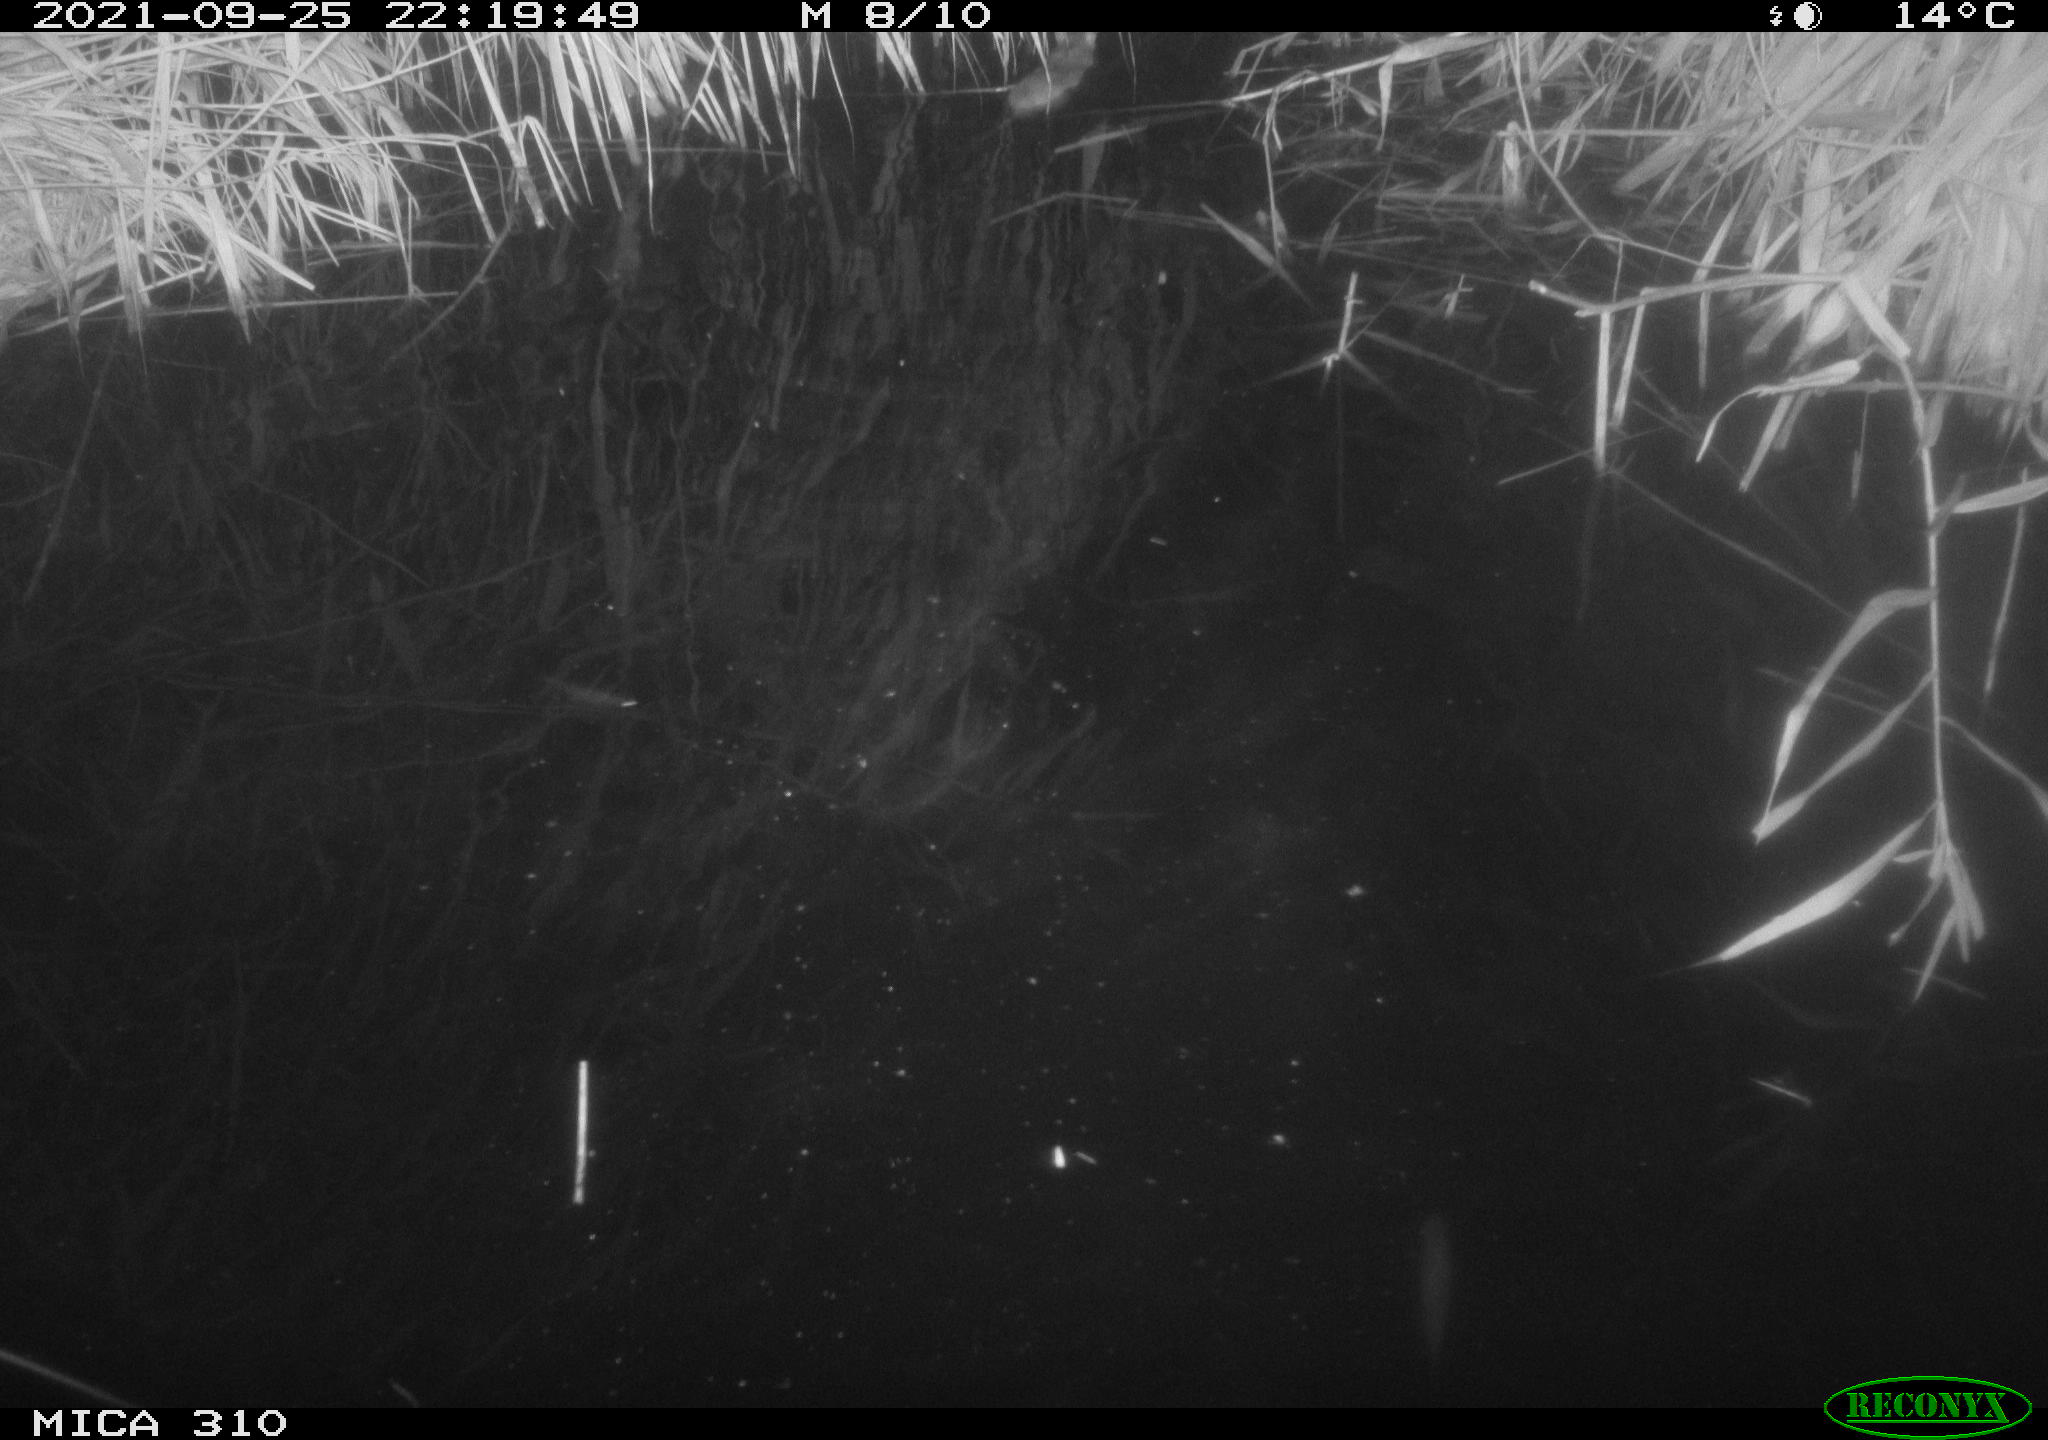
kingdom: Animalia
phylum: Chordata
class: Mammalia
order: Rodentia
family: Muridae
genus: Rattus
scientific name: Rattus norvegicus
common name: Brown rat
